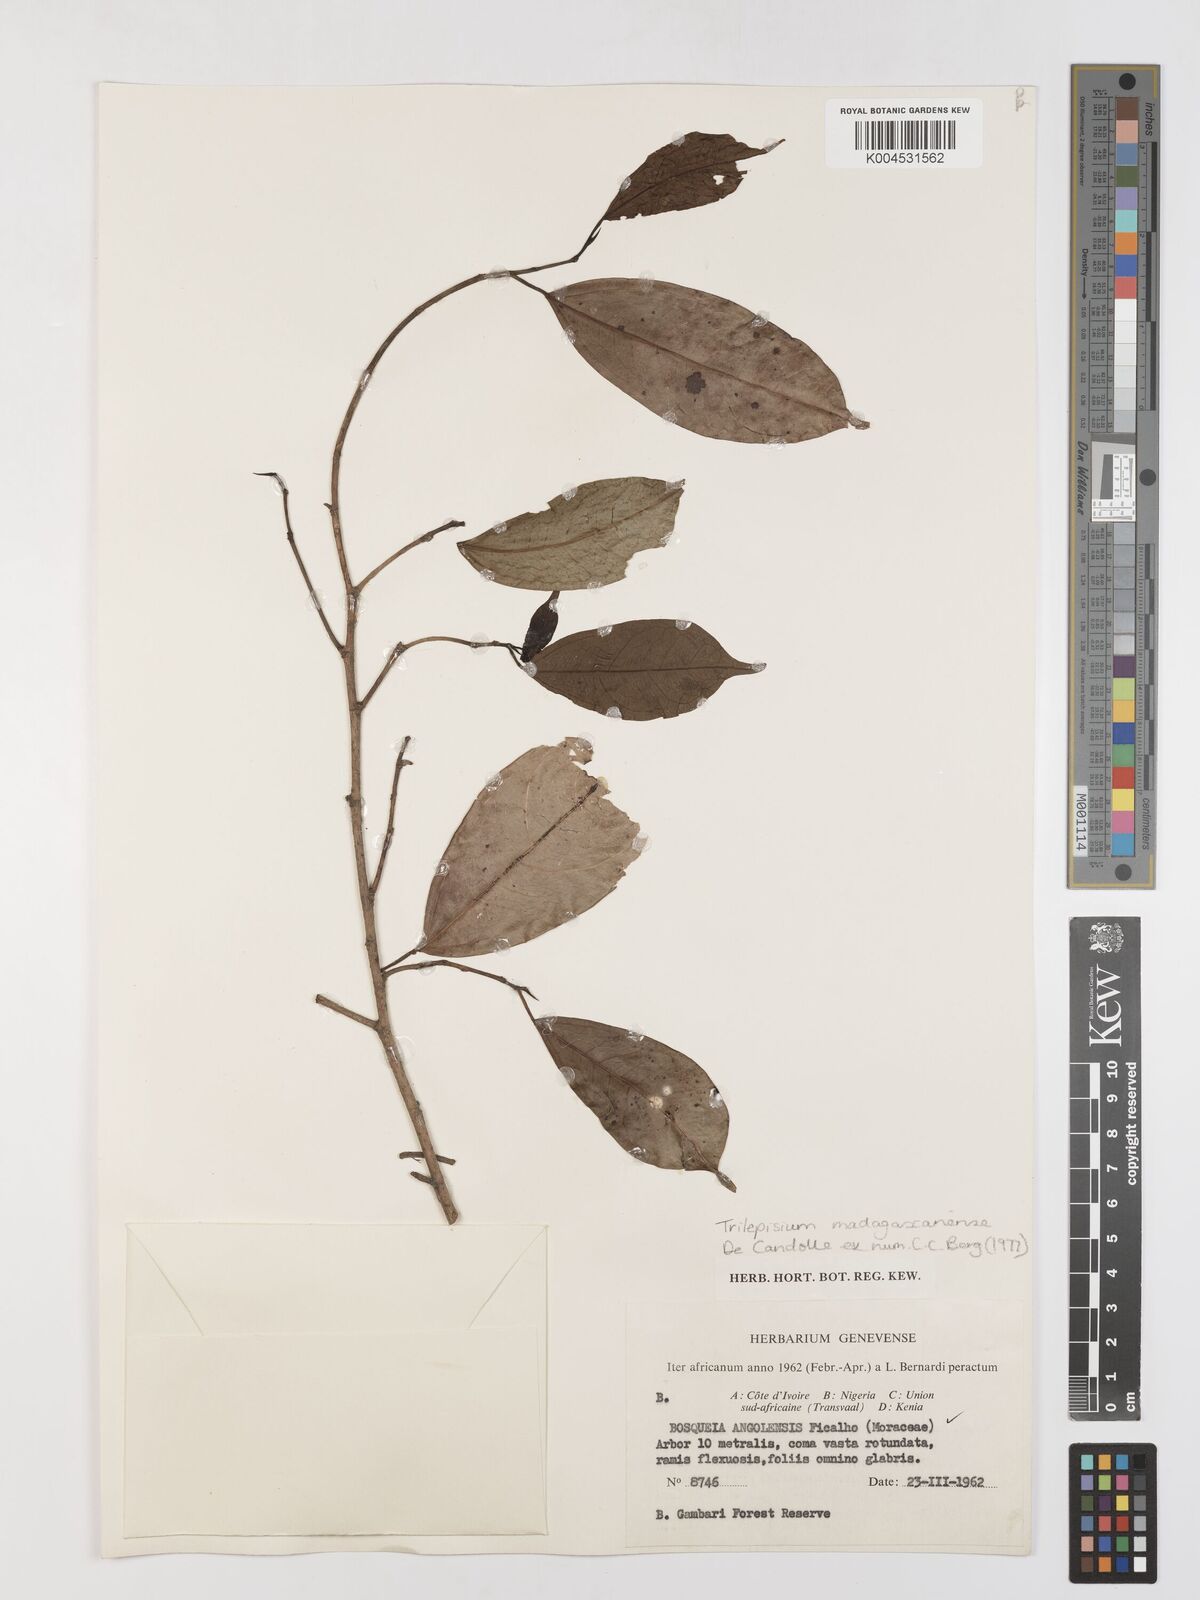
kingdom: Plantae
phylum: Tracheophyta
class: Magnoliopsida
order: Rosales
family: Moraceae
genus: Trilepisium
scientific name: Trilepisium madagascariense
